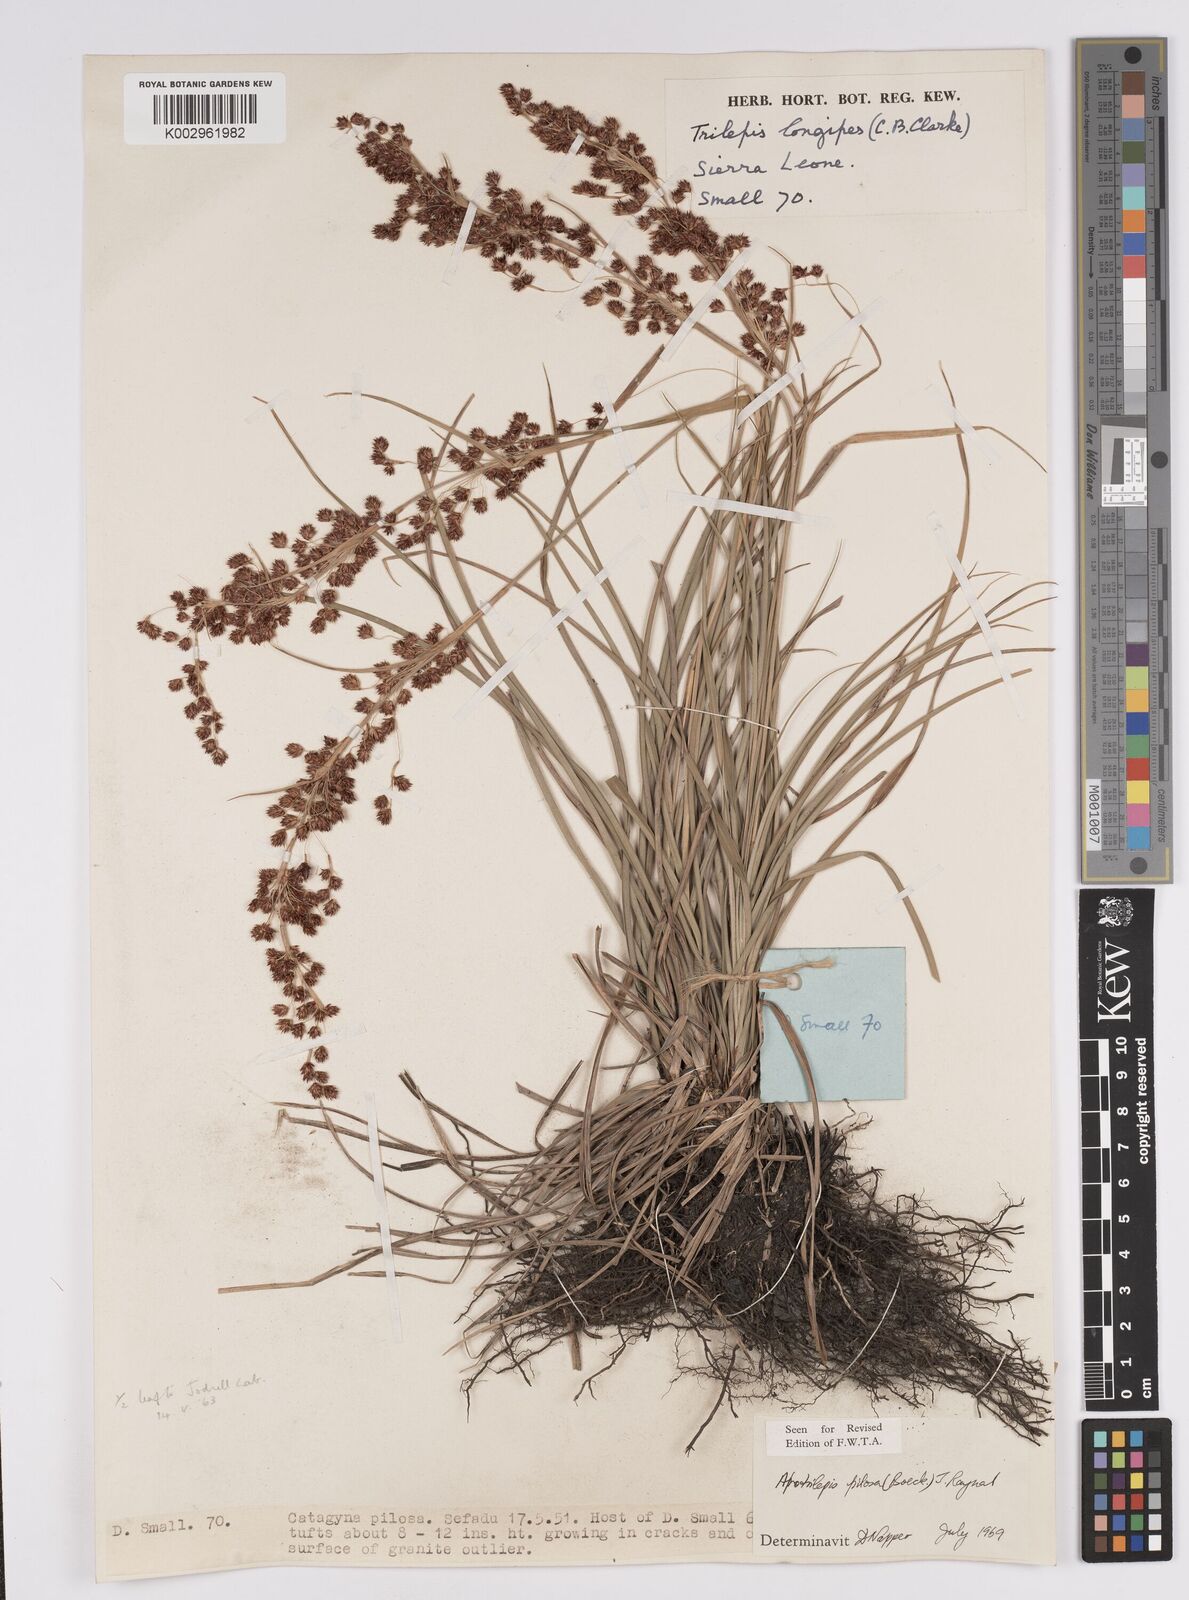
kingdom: Plantae
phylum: Tracheophyta
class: Liliopsida
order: Poales
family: Cyperaceae
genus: Afrotrilepis
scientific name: Afrotrilepis pilosa
